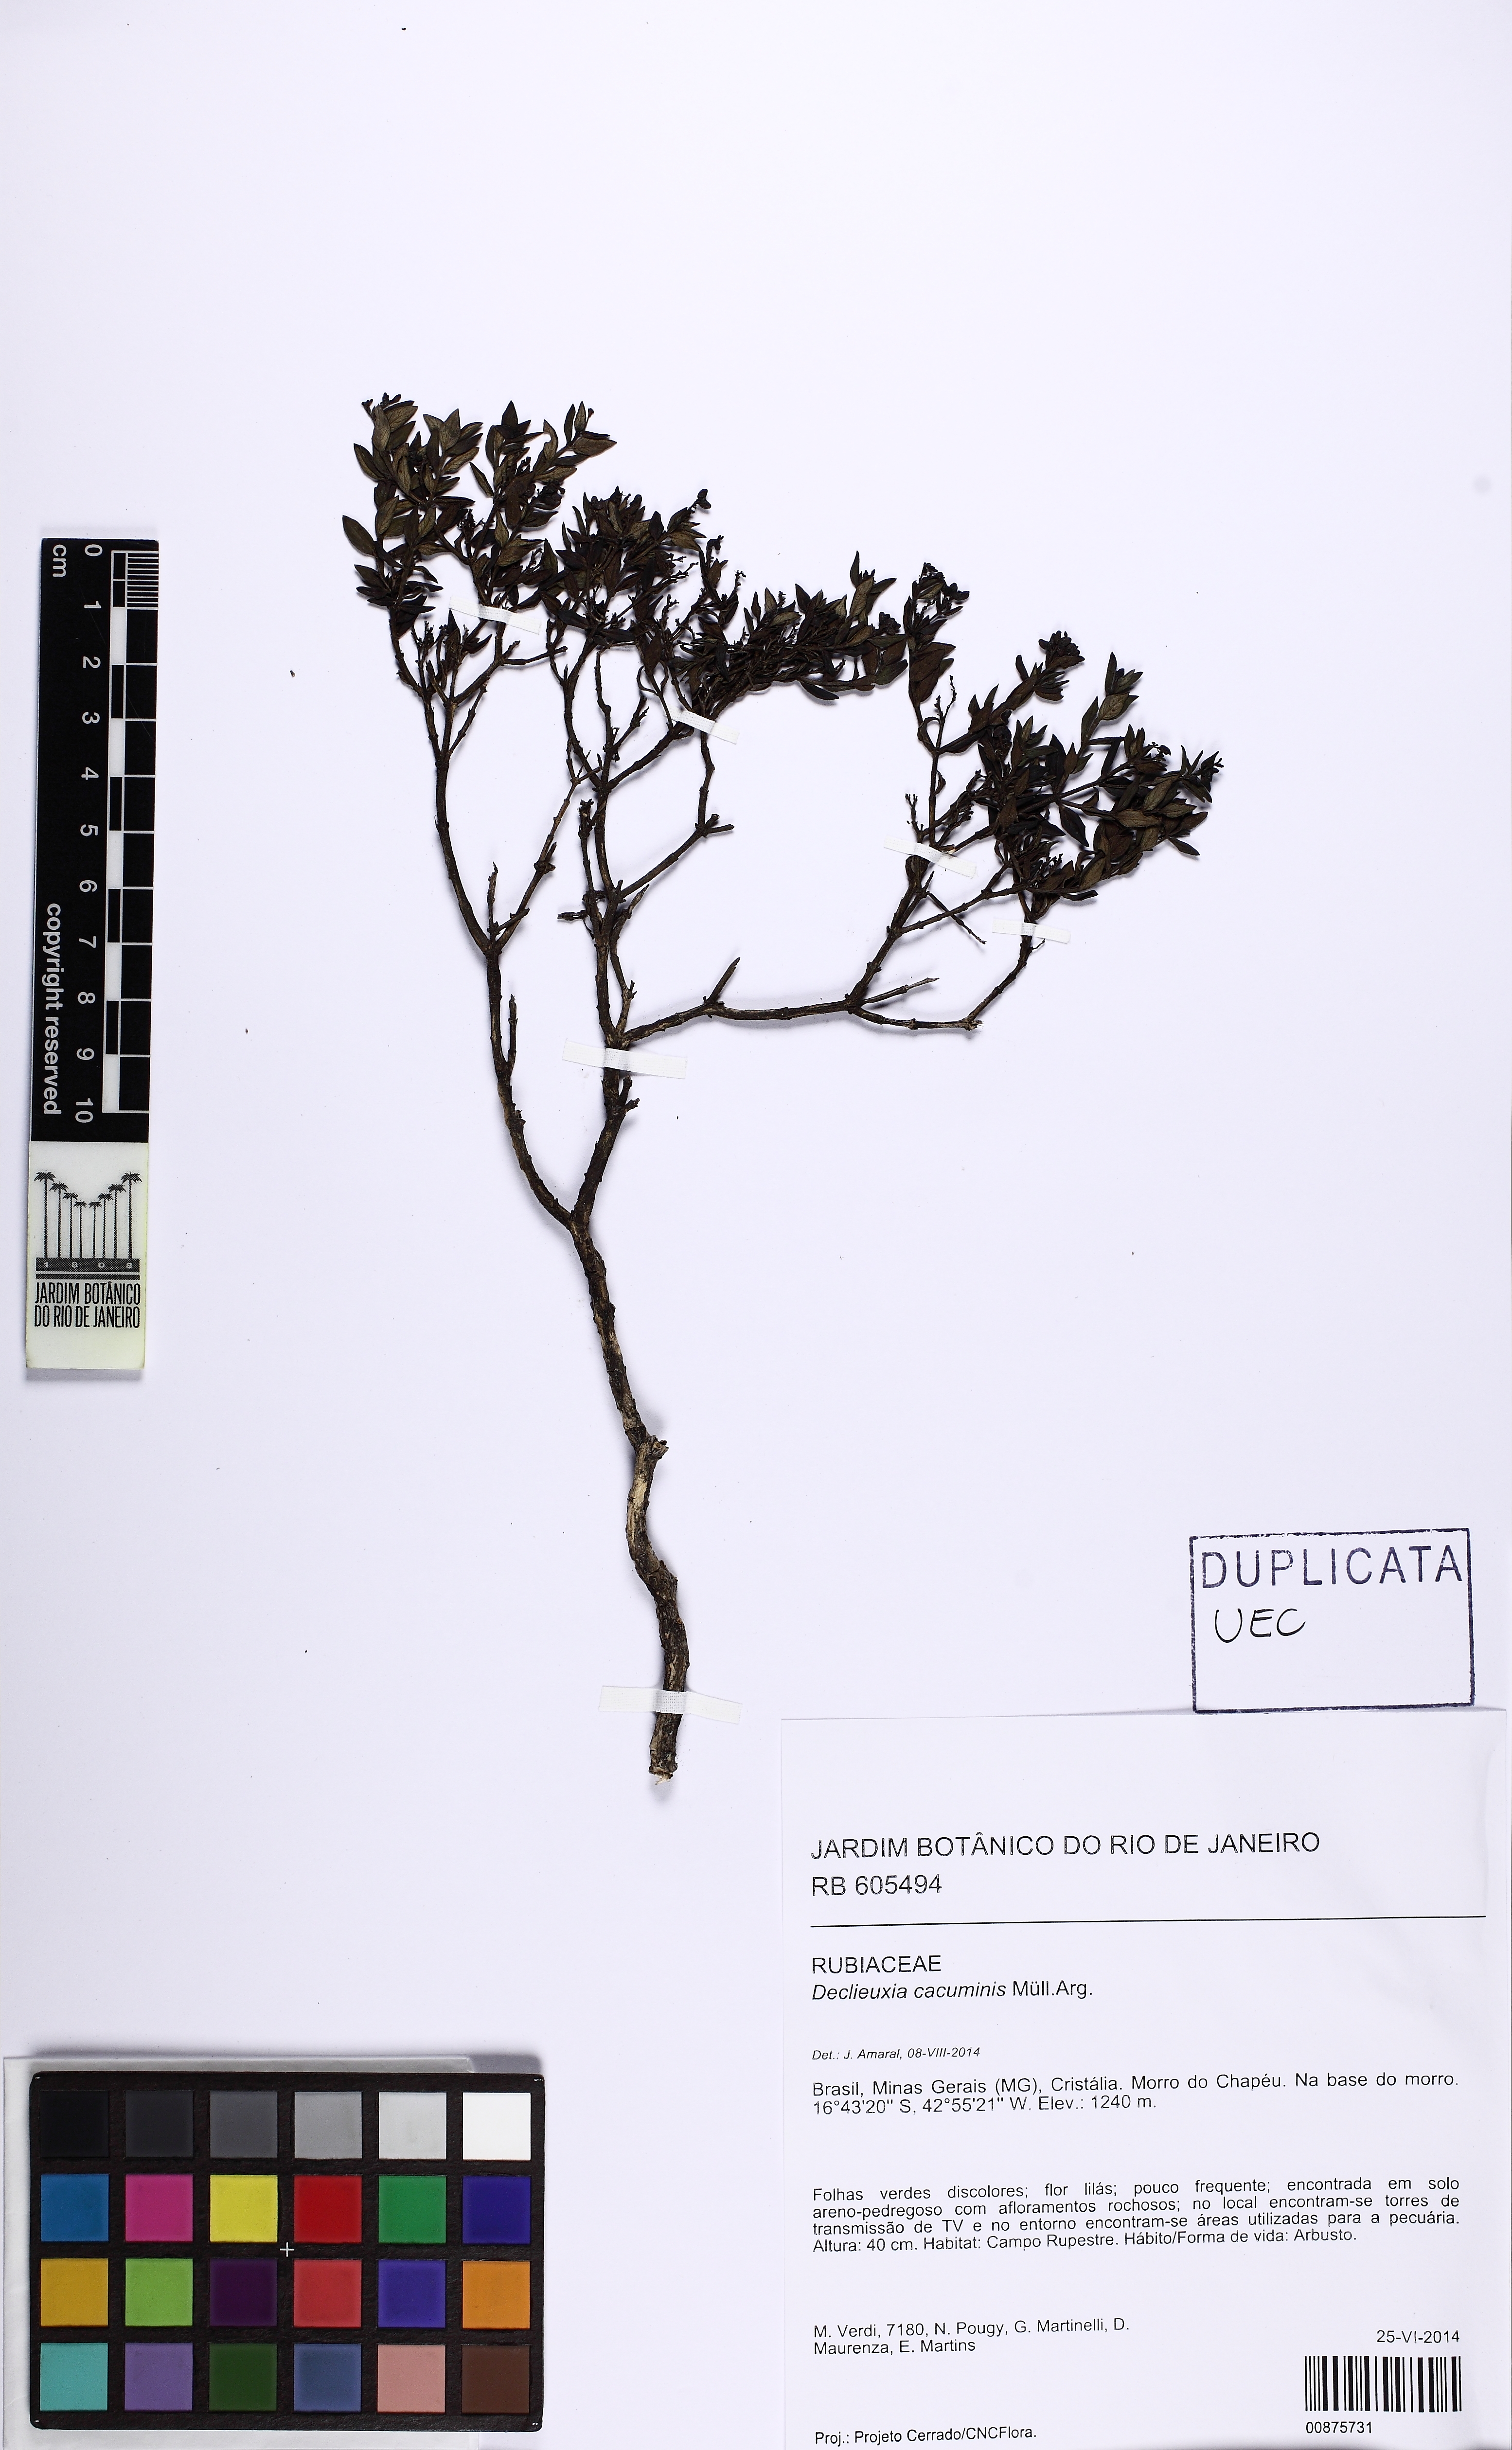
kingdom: Plantae
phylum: Tracheophyta
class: Magnoliopsida
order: Gentianales
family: Rubiaceae
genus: Declieuxia
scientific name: Declieuxia cacuminis
